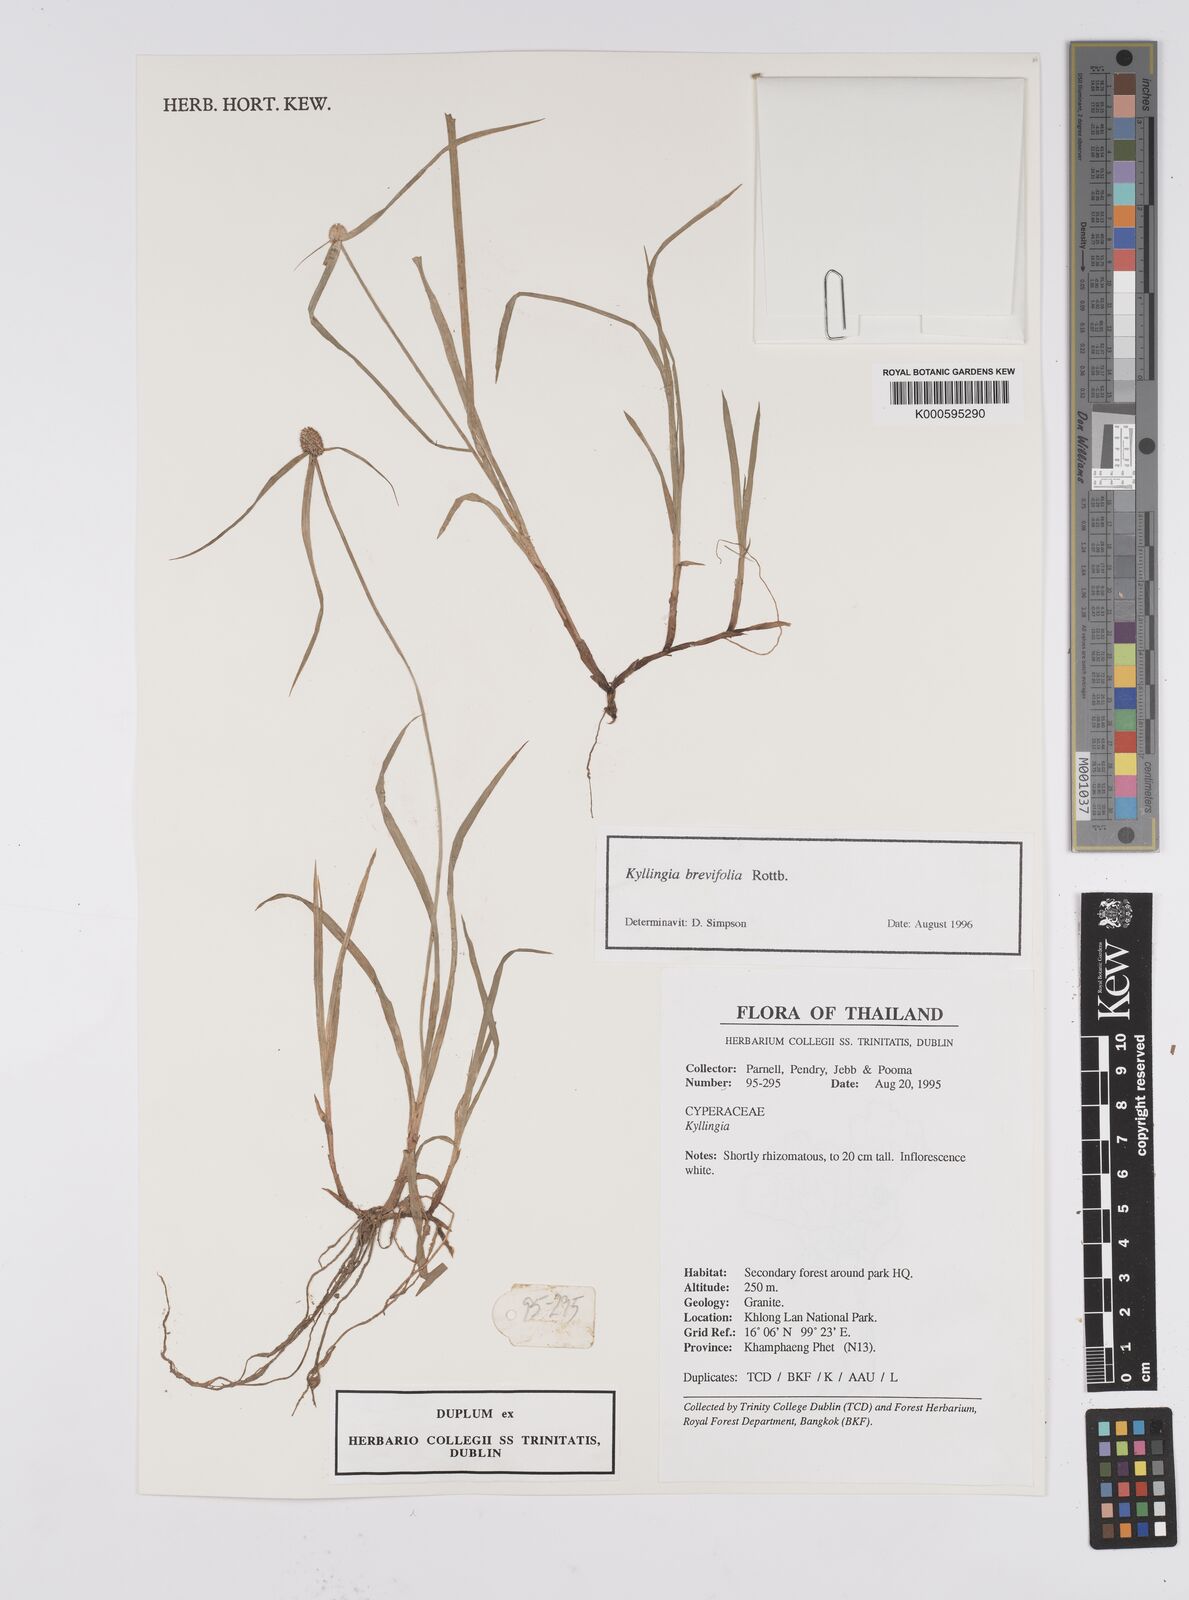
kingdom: Plantae
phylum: Tracheophyta
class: Liliopsida
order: Poales
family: Cyperaceae
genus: Cyperus
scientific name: Cyperus brevifolius
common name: Globe kyllinga
